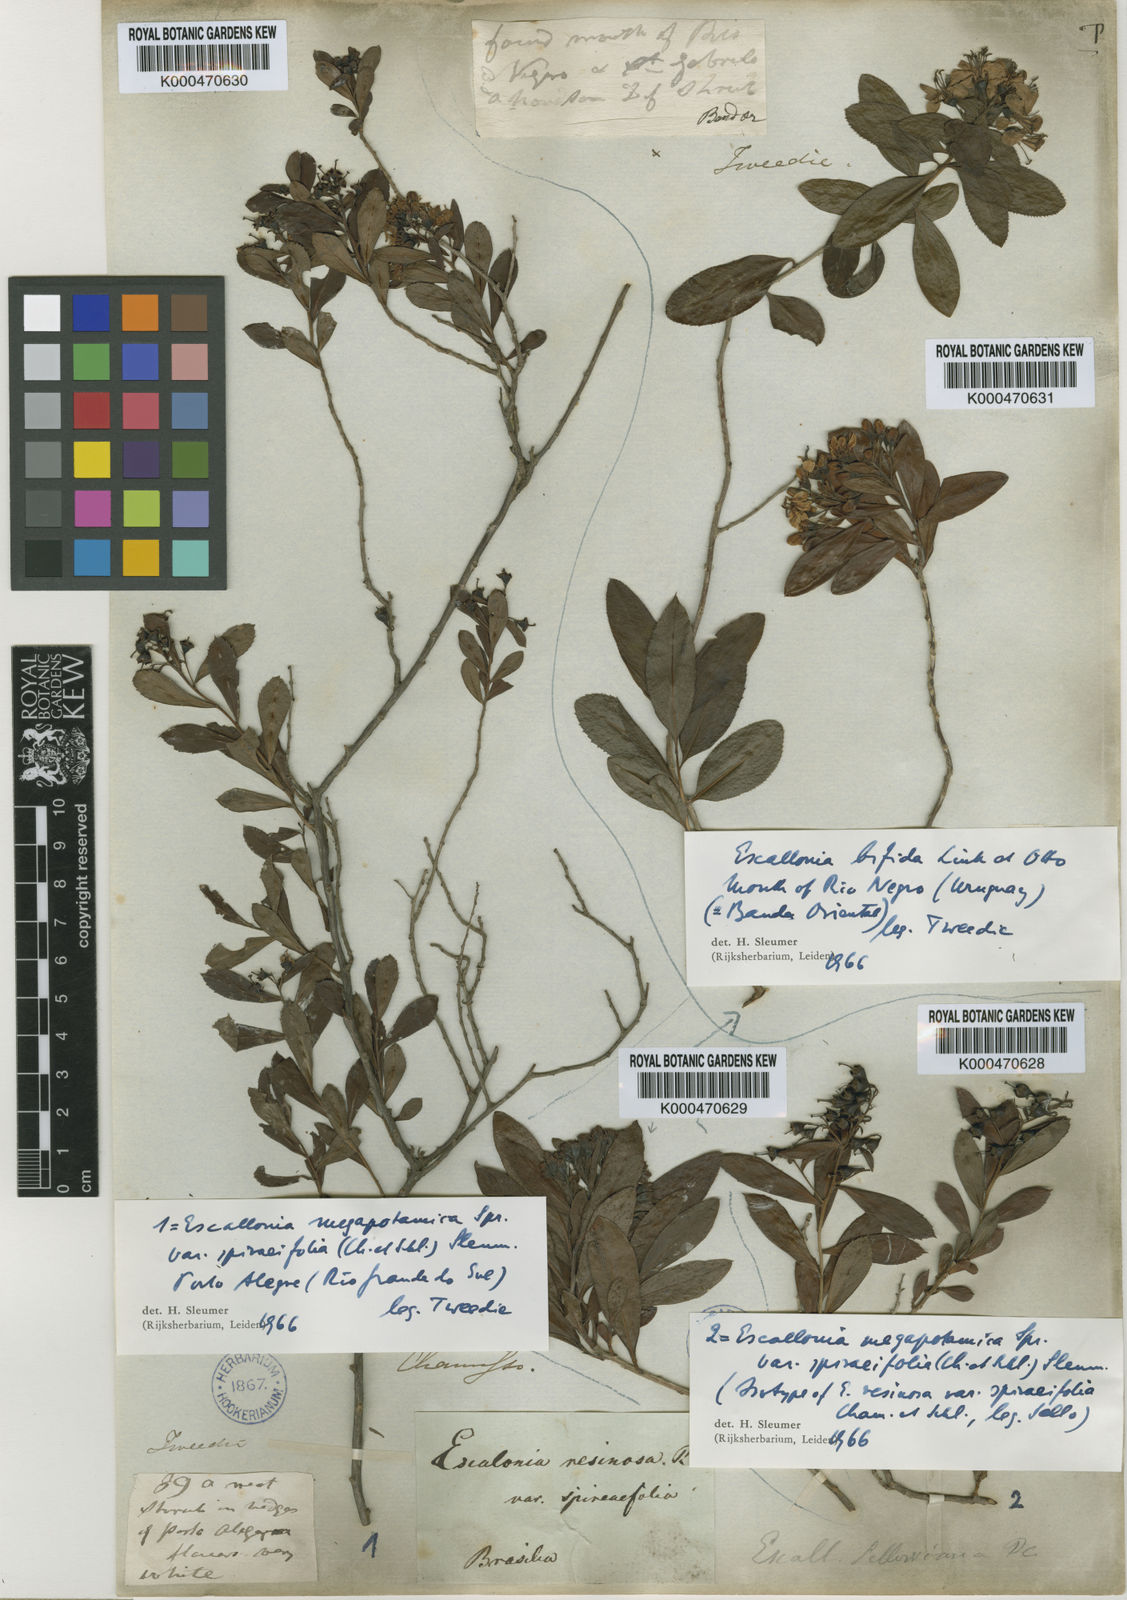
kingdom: Plantae
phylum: Tracheophyta
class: Magnoliopsida
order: Escalloniales
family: Escalloniaceae
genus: Escallonia
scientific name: Escallonia megapotamica
